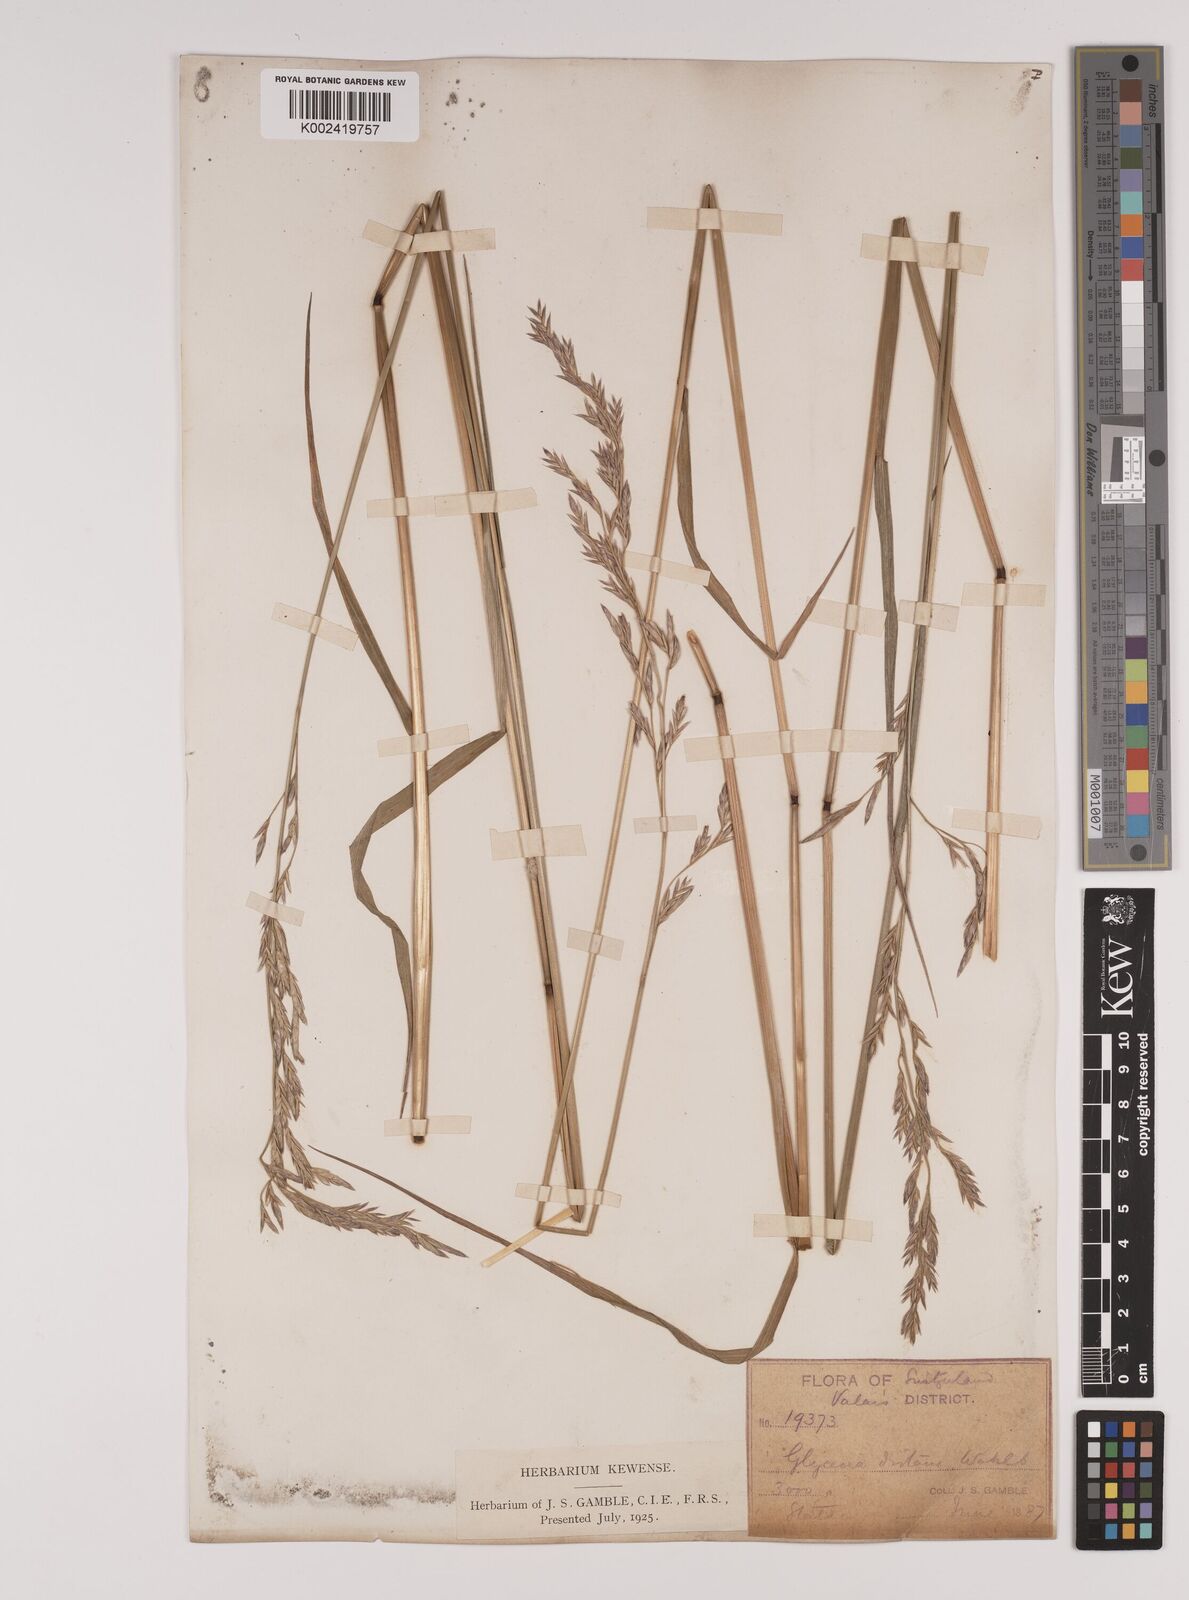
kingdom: Plantae
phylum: Tracheophyta
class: Liliopsida
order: Poales
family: Poaceae
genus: Lolium
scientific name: Lolium pratense
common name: Dover grass
